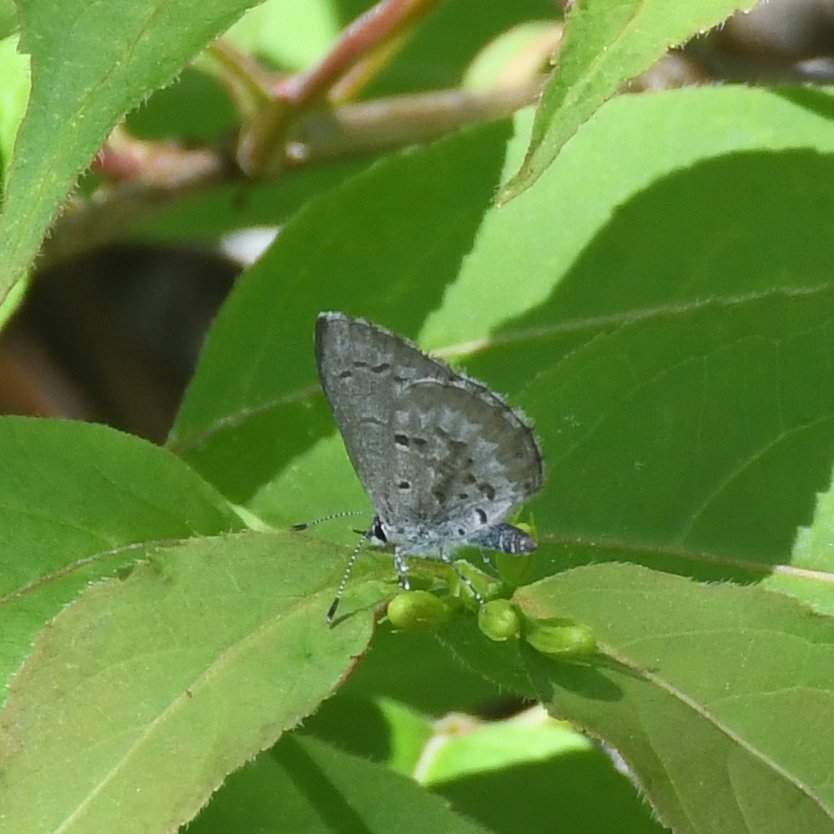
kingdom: Animalia
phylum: Arthropoda
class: Insecta
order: Lepidoptera
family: Lycaenidae
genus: Celastrina
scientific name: Celastrina lucia
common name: Northern Spring Azure
